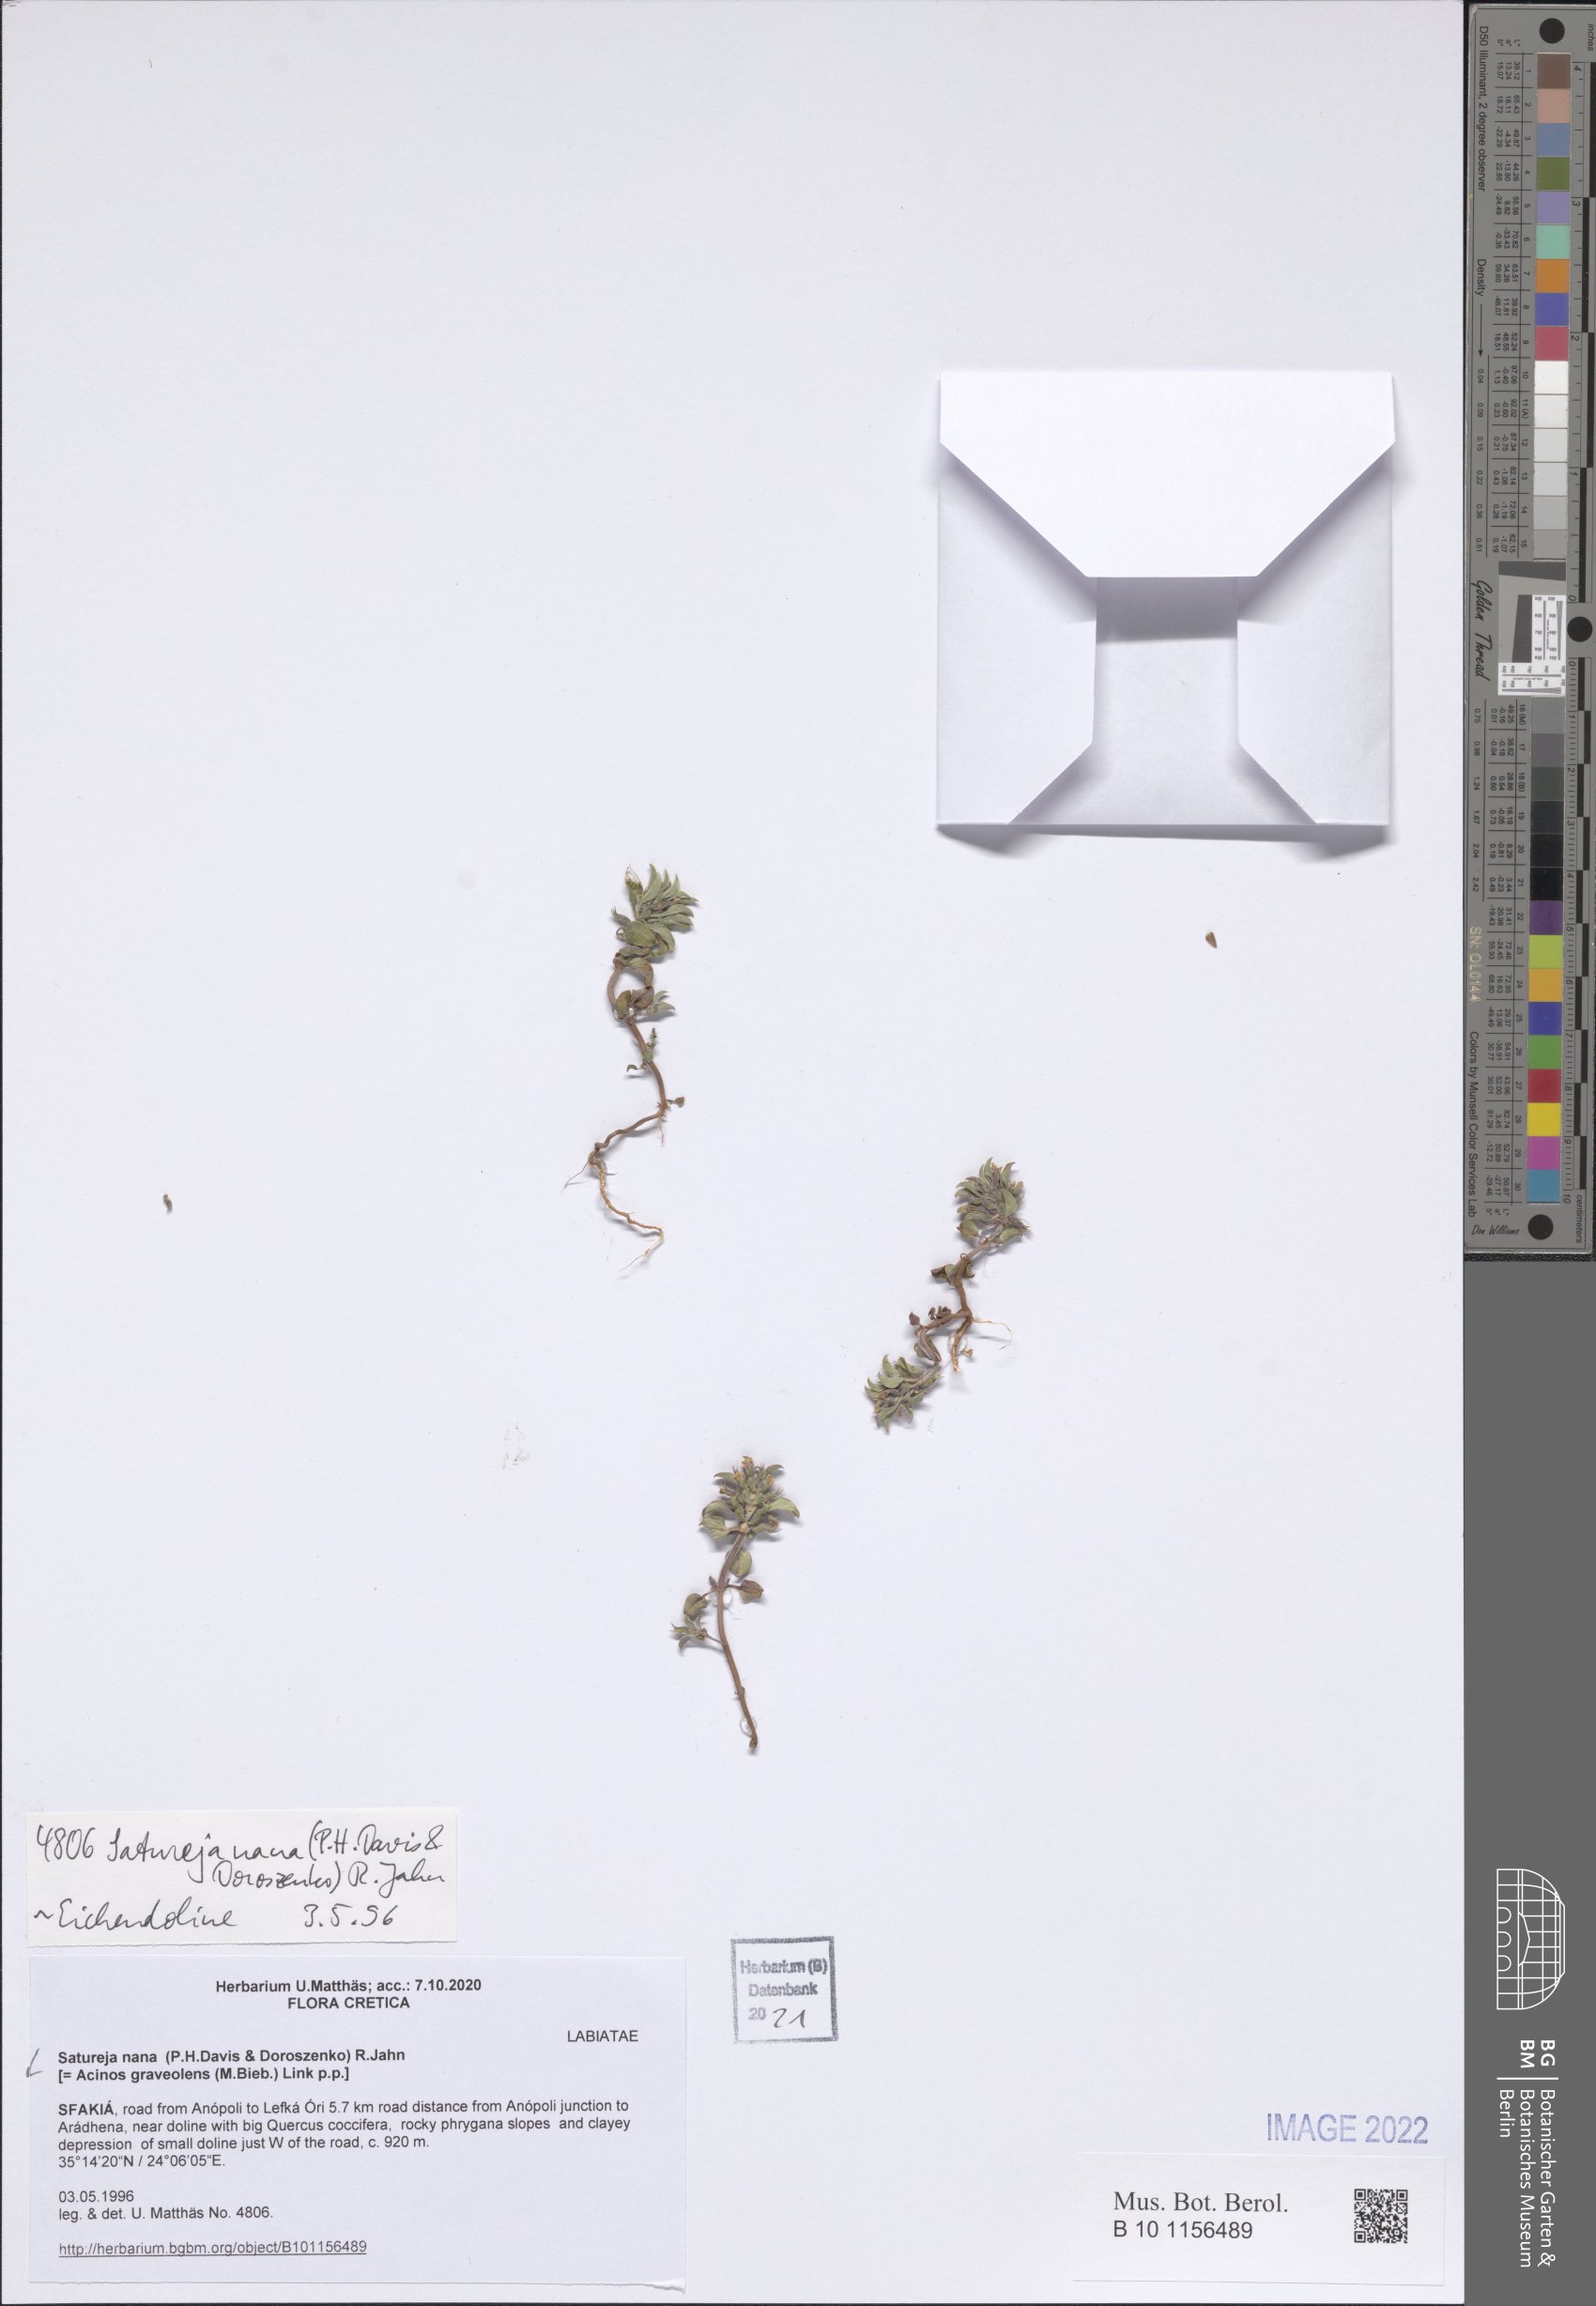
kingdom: Plantae
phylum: Tracheophyta
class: Magnoliopsida
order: Lamiales
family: Lamiaceae
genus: Clinopodium
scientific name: Clinopodium nanum
